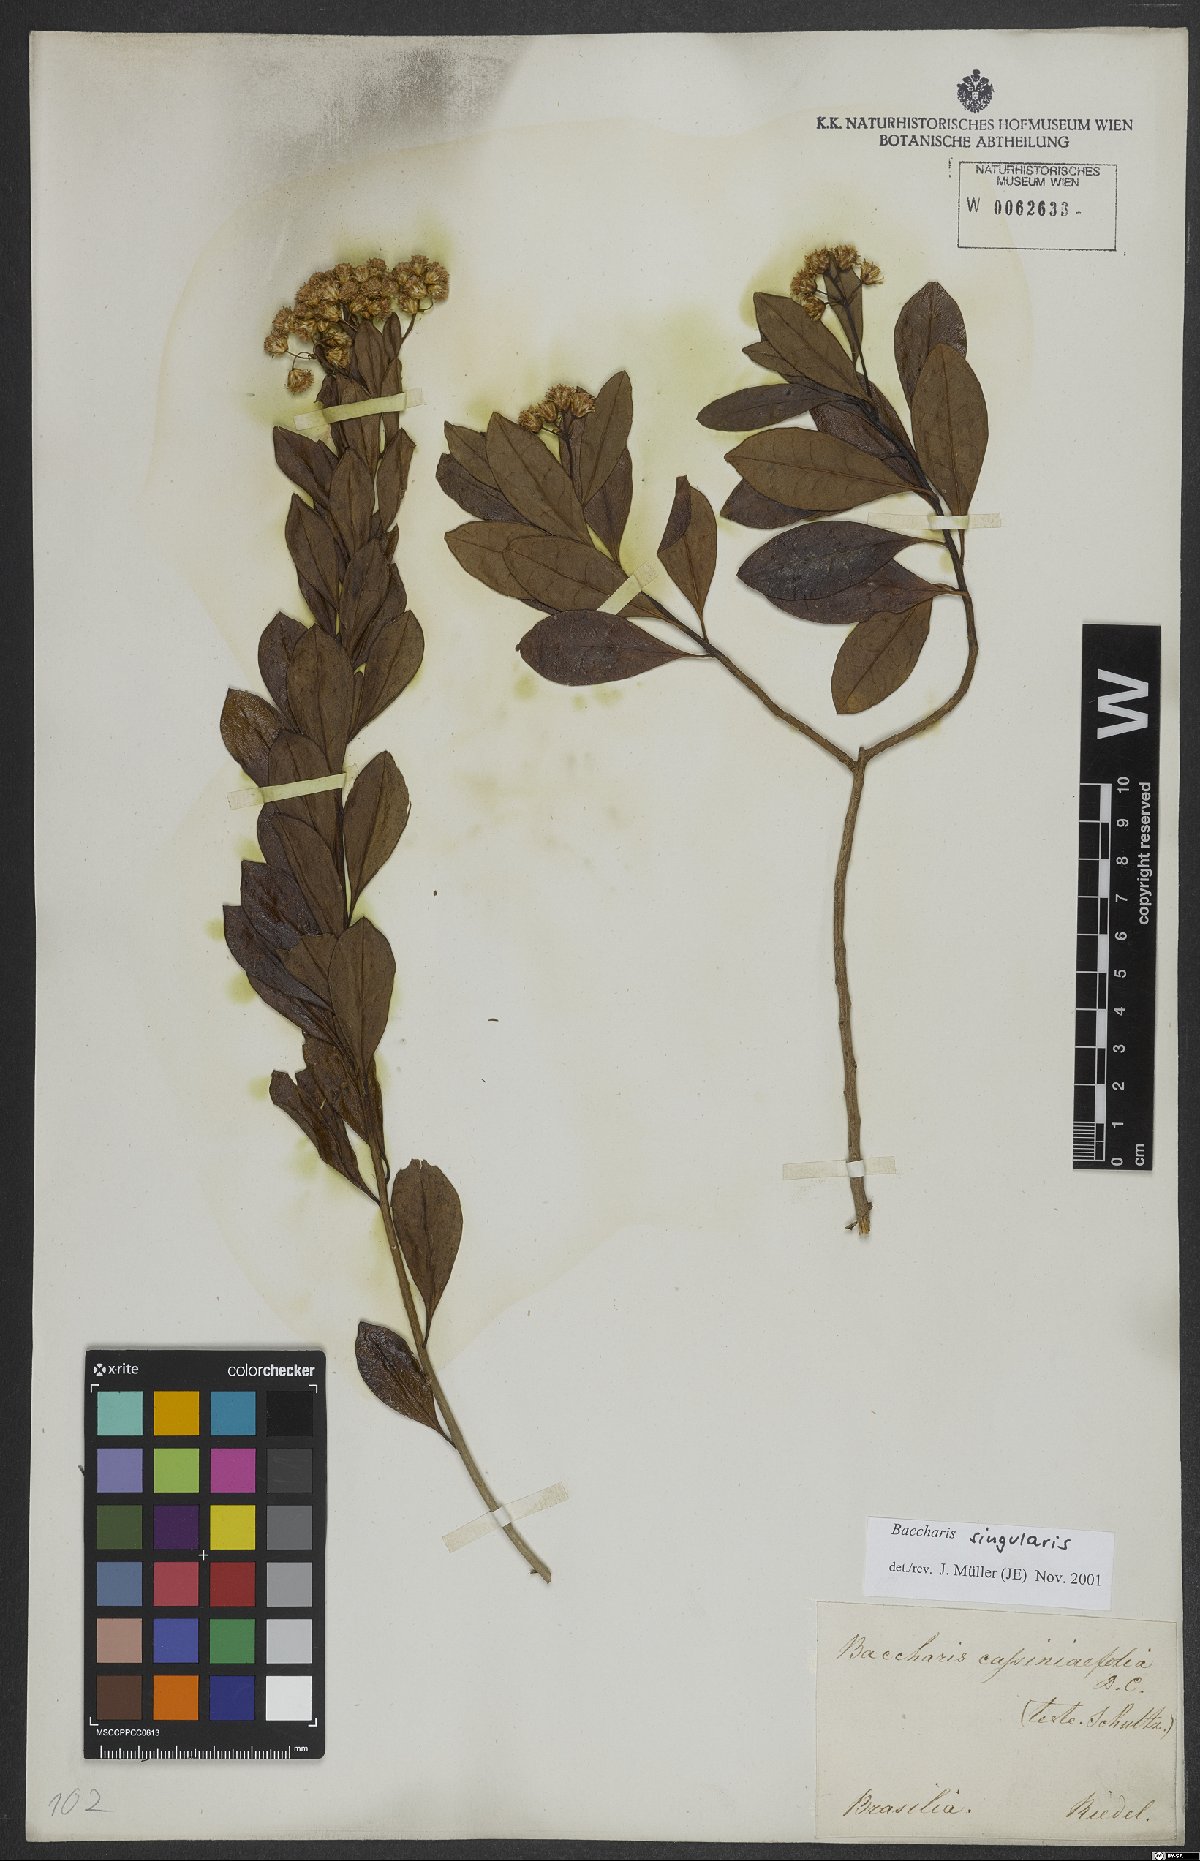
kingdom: Plantae
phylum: Tracheophyta
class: Magnoliopsida
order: Asterales
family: Asteraceae
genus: Baccharis
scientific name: Baccharis singularis
